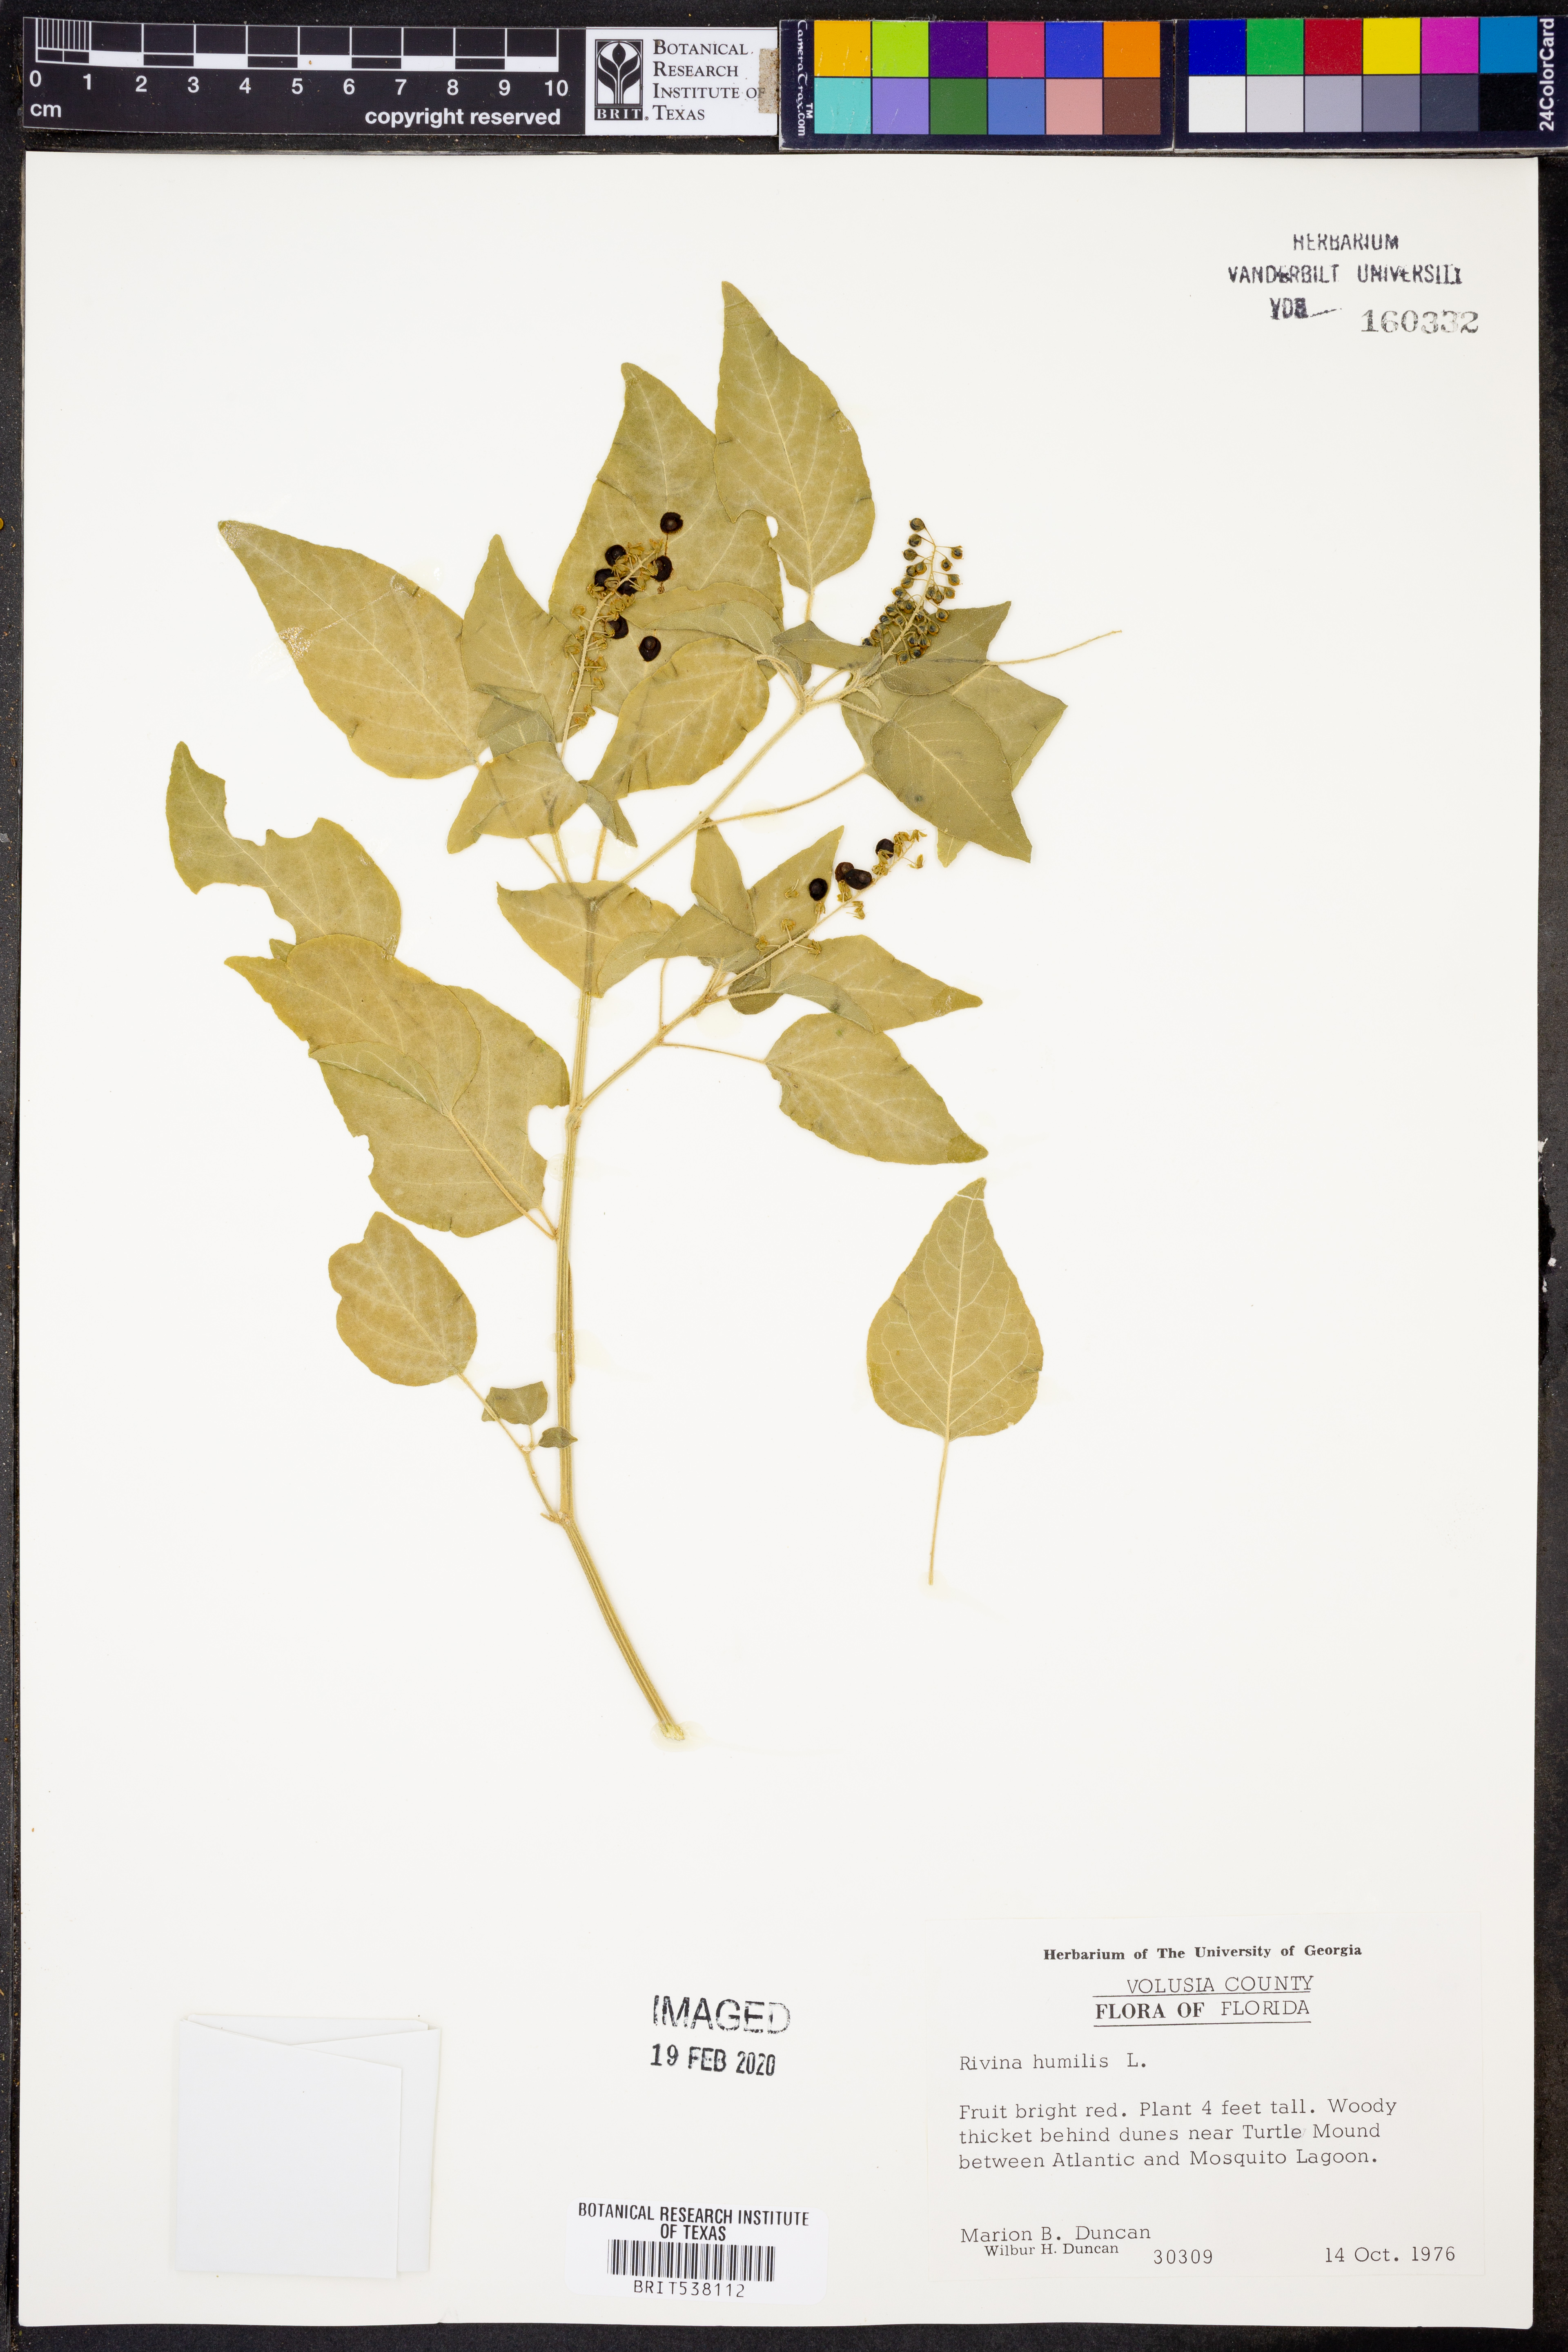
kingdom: Plantae
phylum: Tracheophyta
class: Magnoliopsida
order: Caryophyllales
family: Phytolaccaceae
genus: Rivina
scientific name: Rivina humilis
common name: Rougeplant
